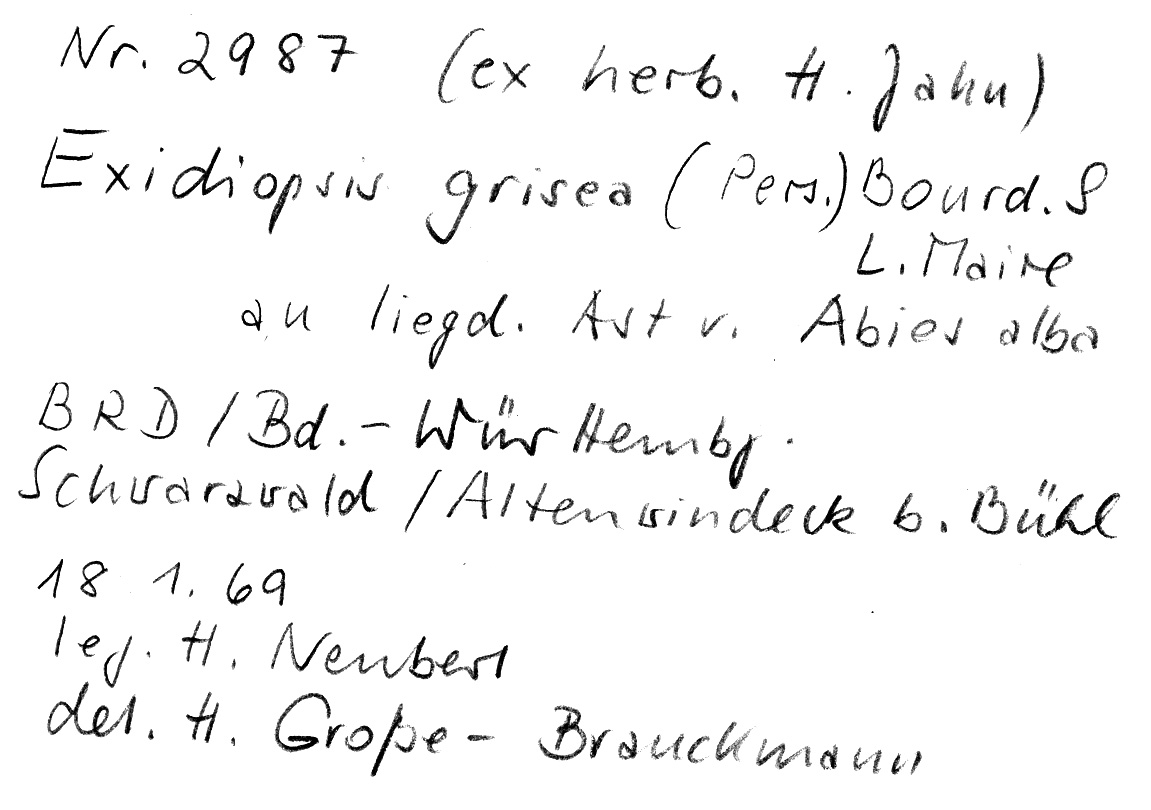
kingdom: Fungi
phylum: Basidiomycota
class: Agaricomycetes
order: Sebacinales
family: Sebacinaceae
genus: Sebacina
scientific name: Sebacina grisea
